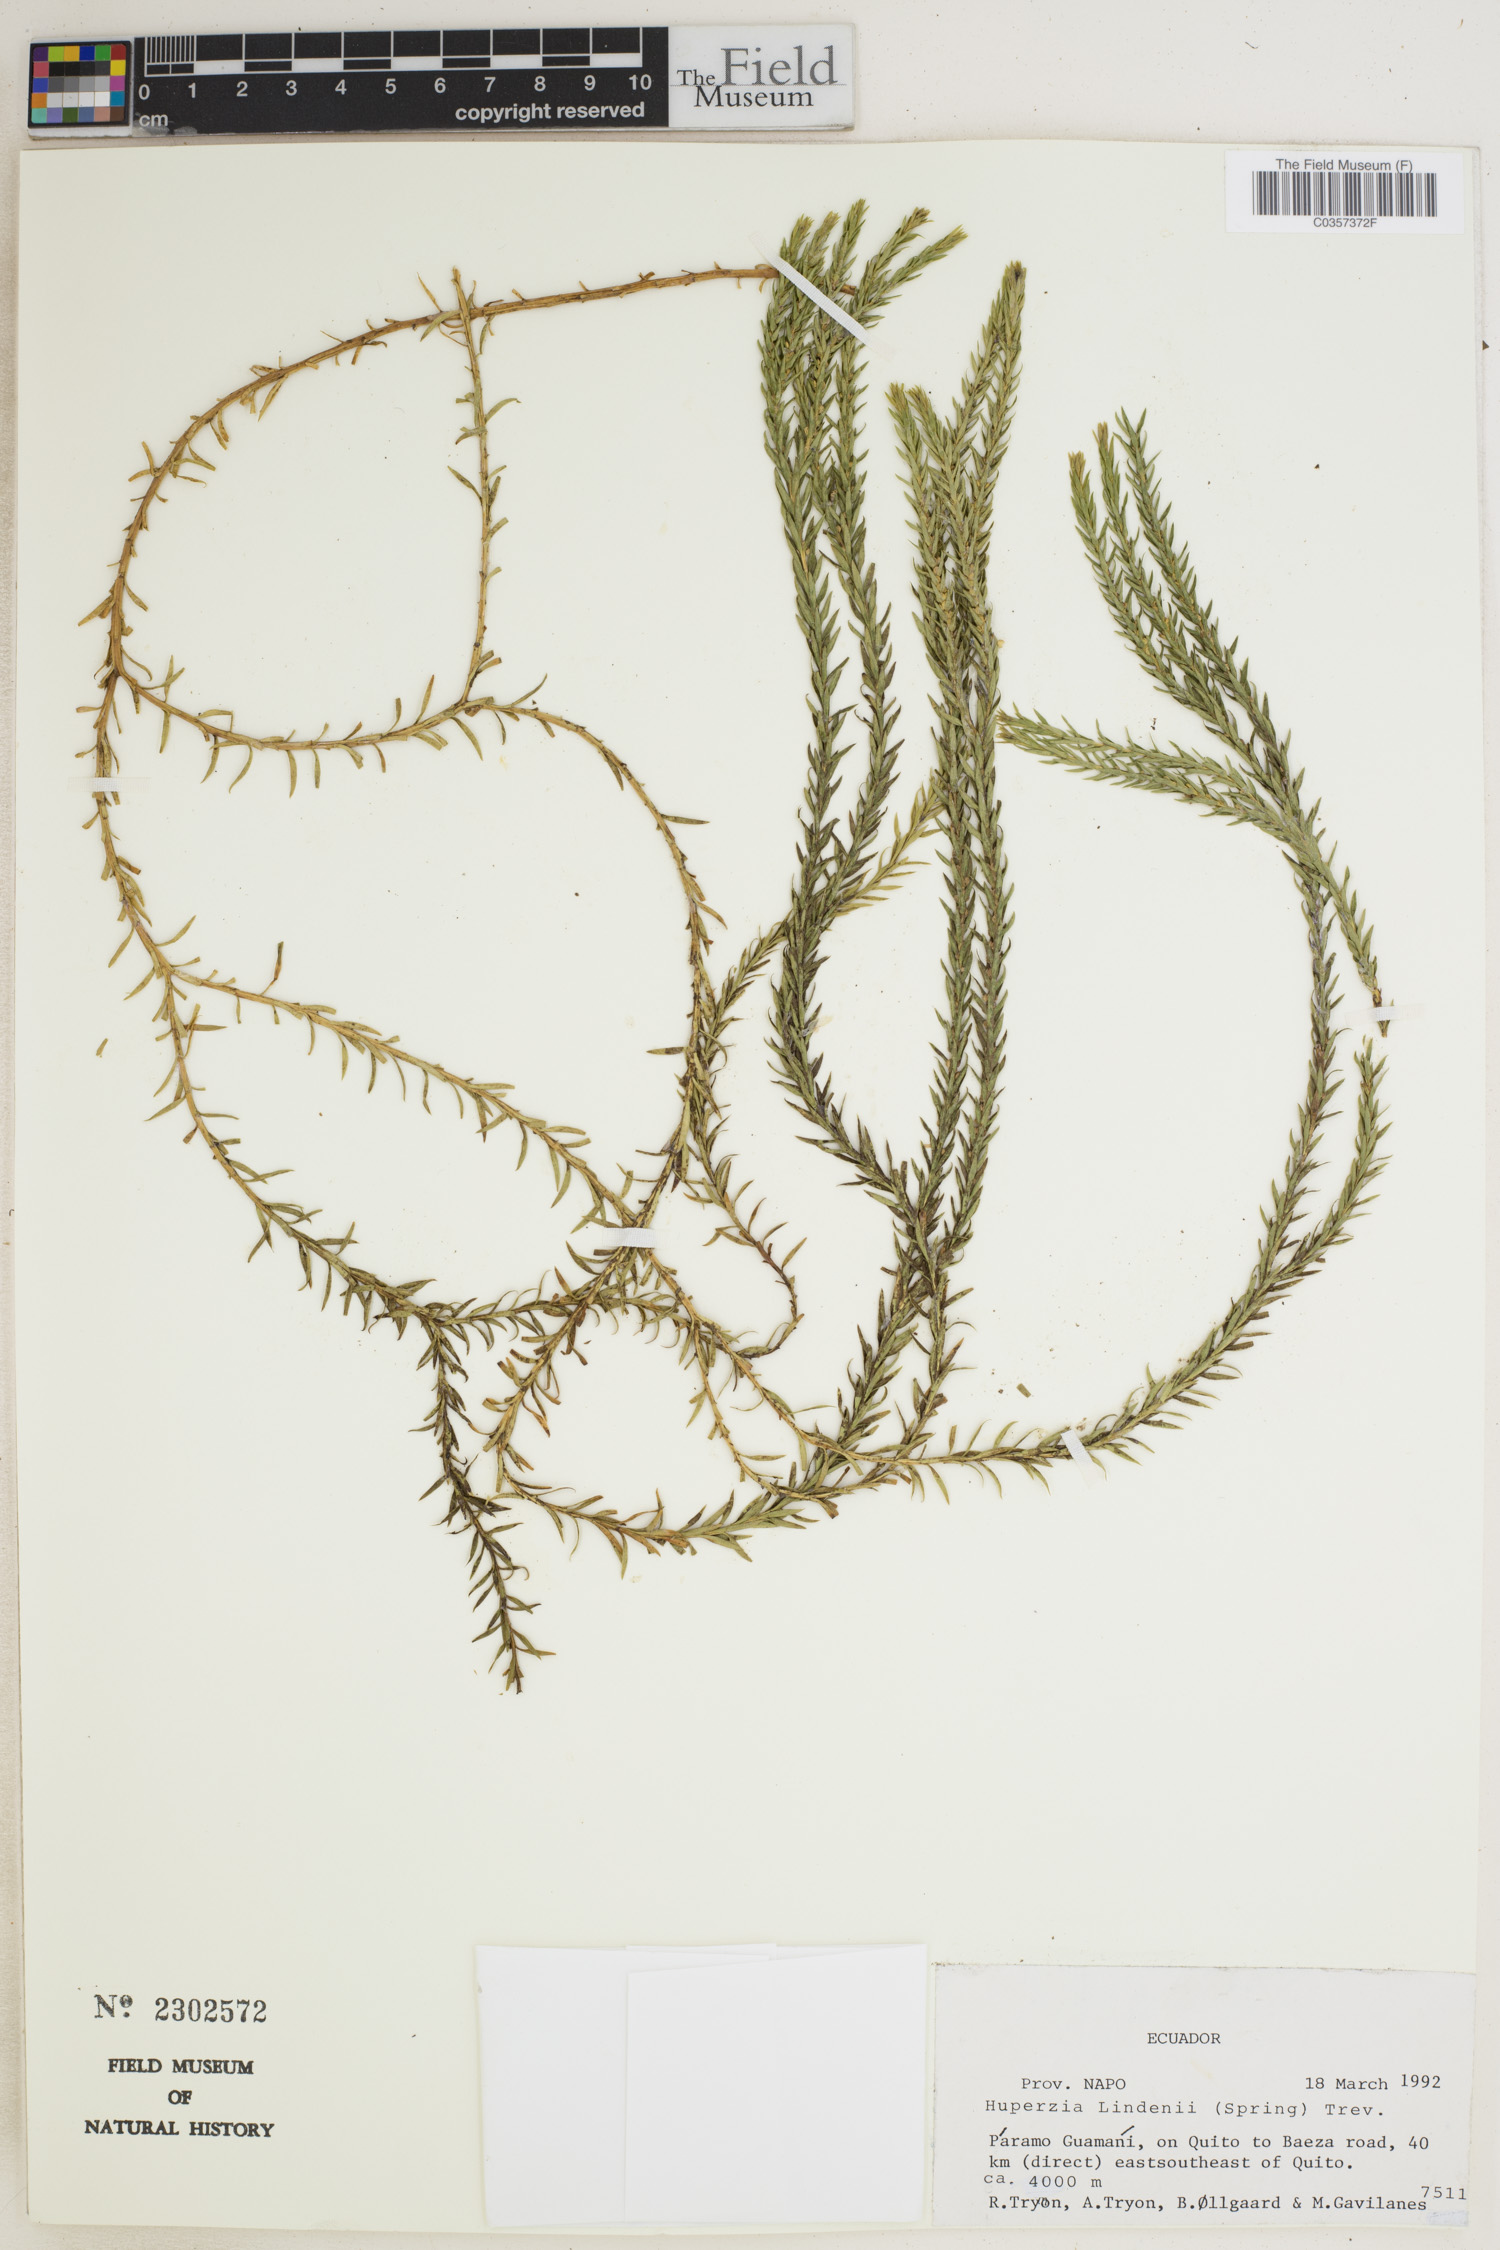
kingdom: Plantae
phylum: Tracheophyta
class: Lycopodiopsida
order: Lycopodiales
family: Lycopodiaceae
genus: Phlegmariurus
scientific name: Phlegmariurus lindenii
